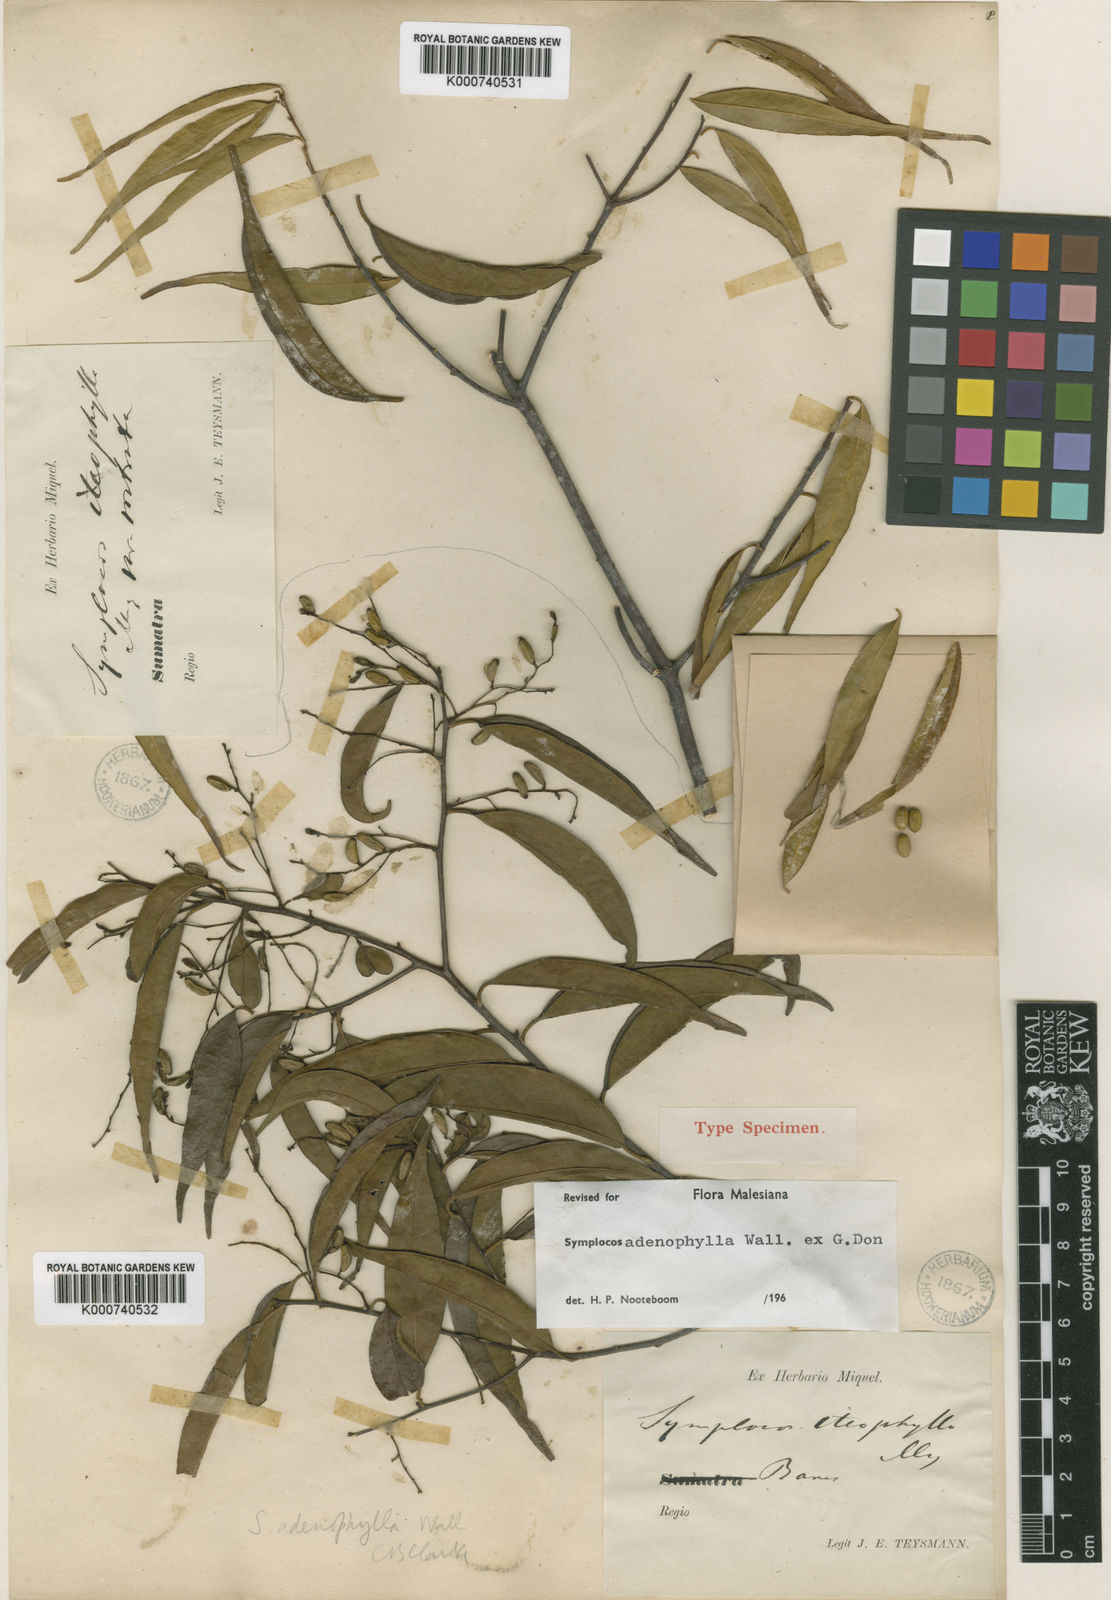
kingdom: Plantae
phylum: Tracheophyta
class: Magnoliopsida
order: Ericales
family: Symplocaceae
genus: Symplocos
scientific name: Symplocos
